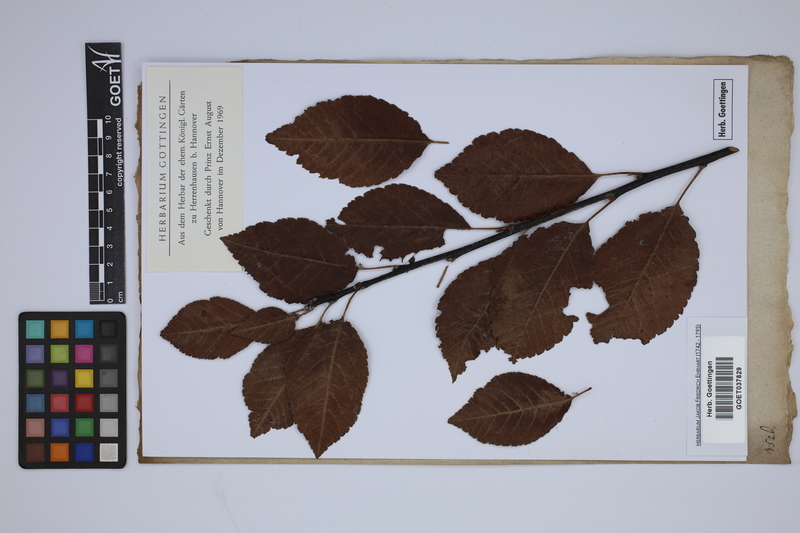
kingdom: Plantae
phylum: Tracheophyta
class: Magnoliopsida
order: Rosales
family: Rosaceae
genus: Amelanchier
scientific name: Amelanchier humilis
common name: Low juneberry
